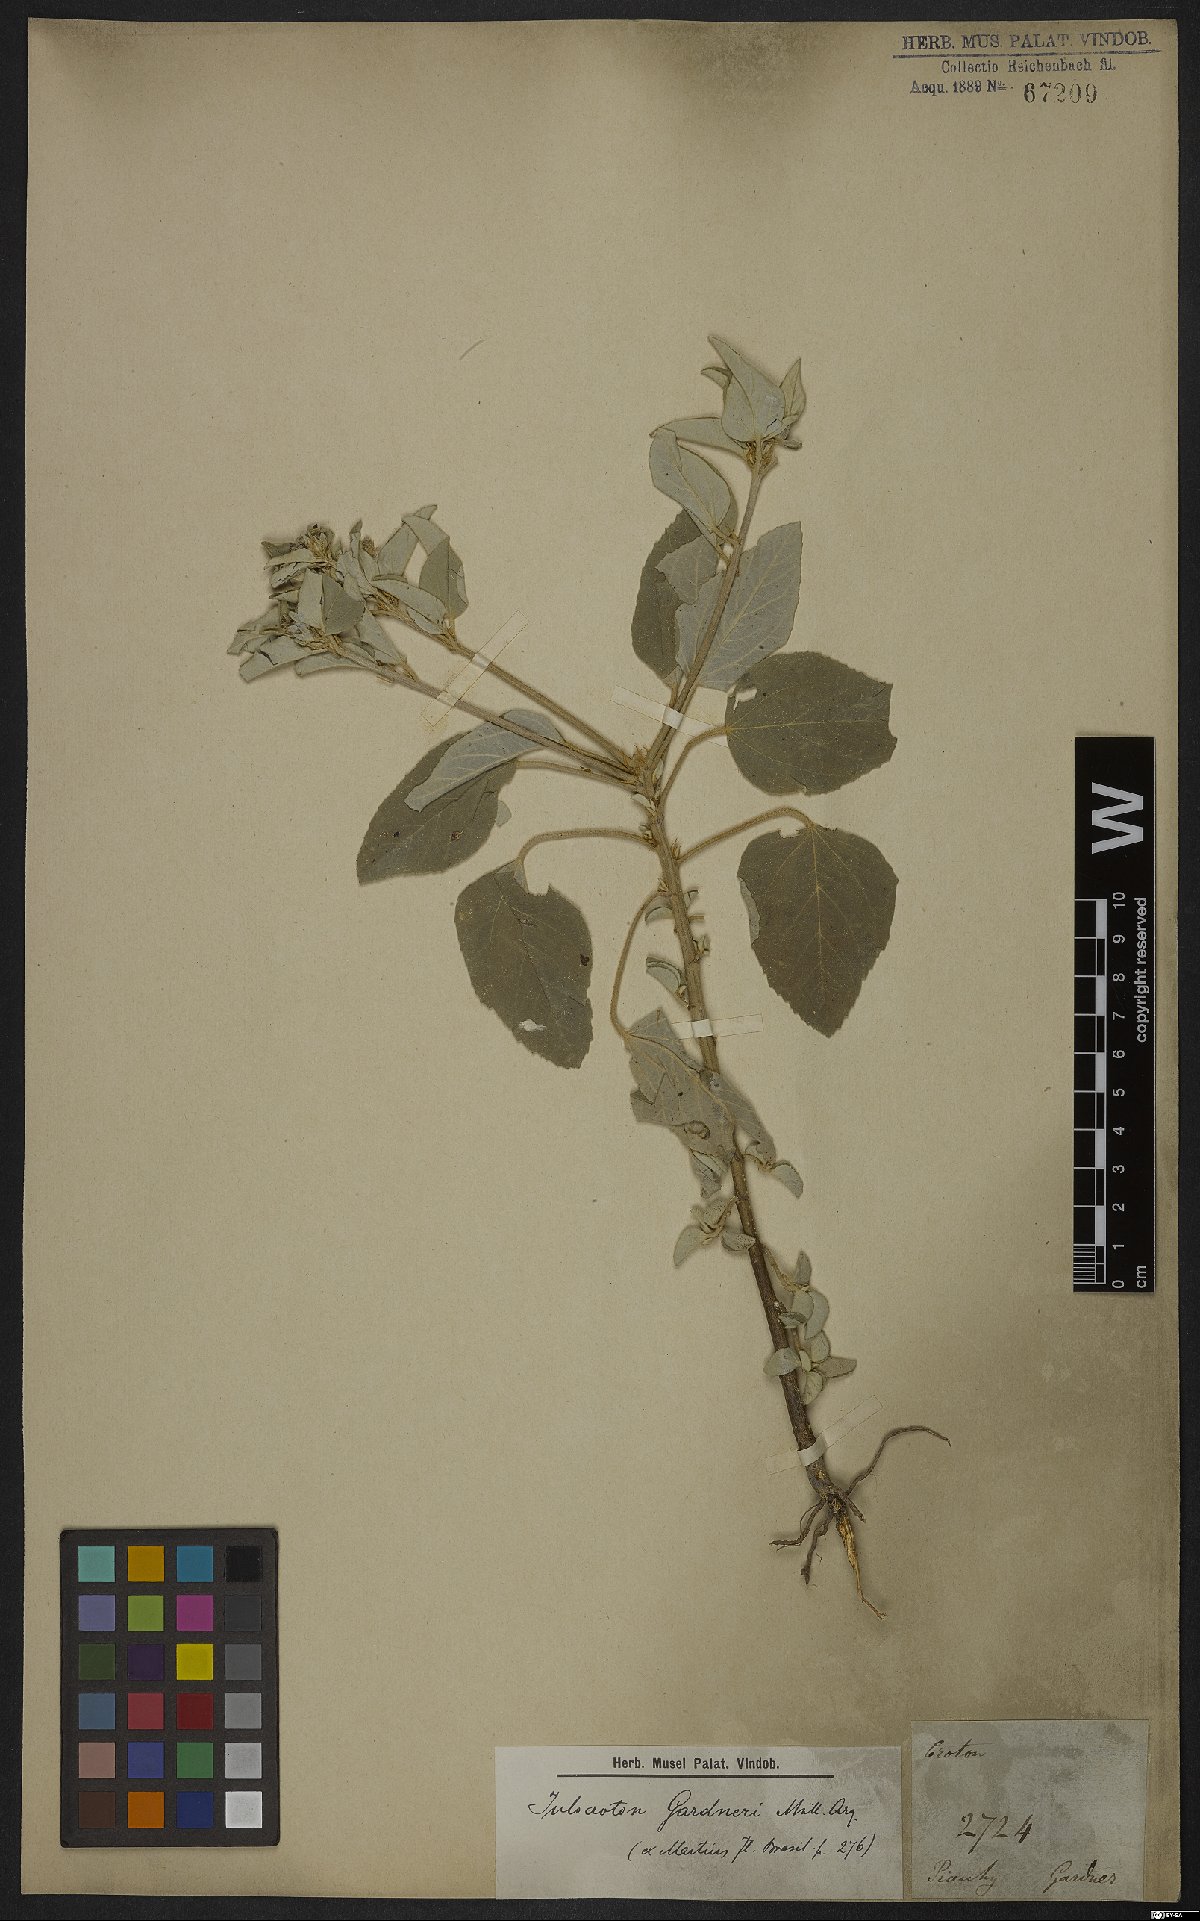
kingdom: Plantae
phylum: Tracheophyta
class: Magnoliopsida
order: Malpighiales
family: Euphorbiaceae
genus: Croton
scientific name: Croton argentealbidus
